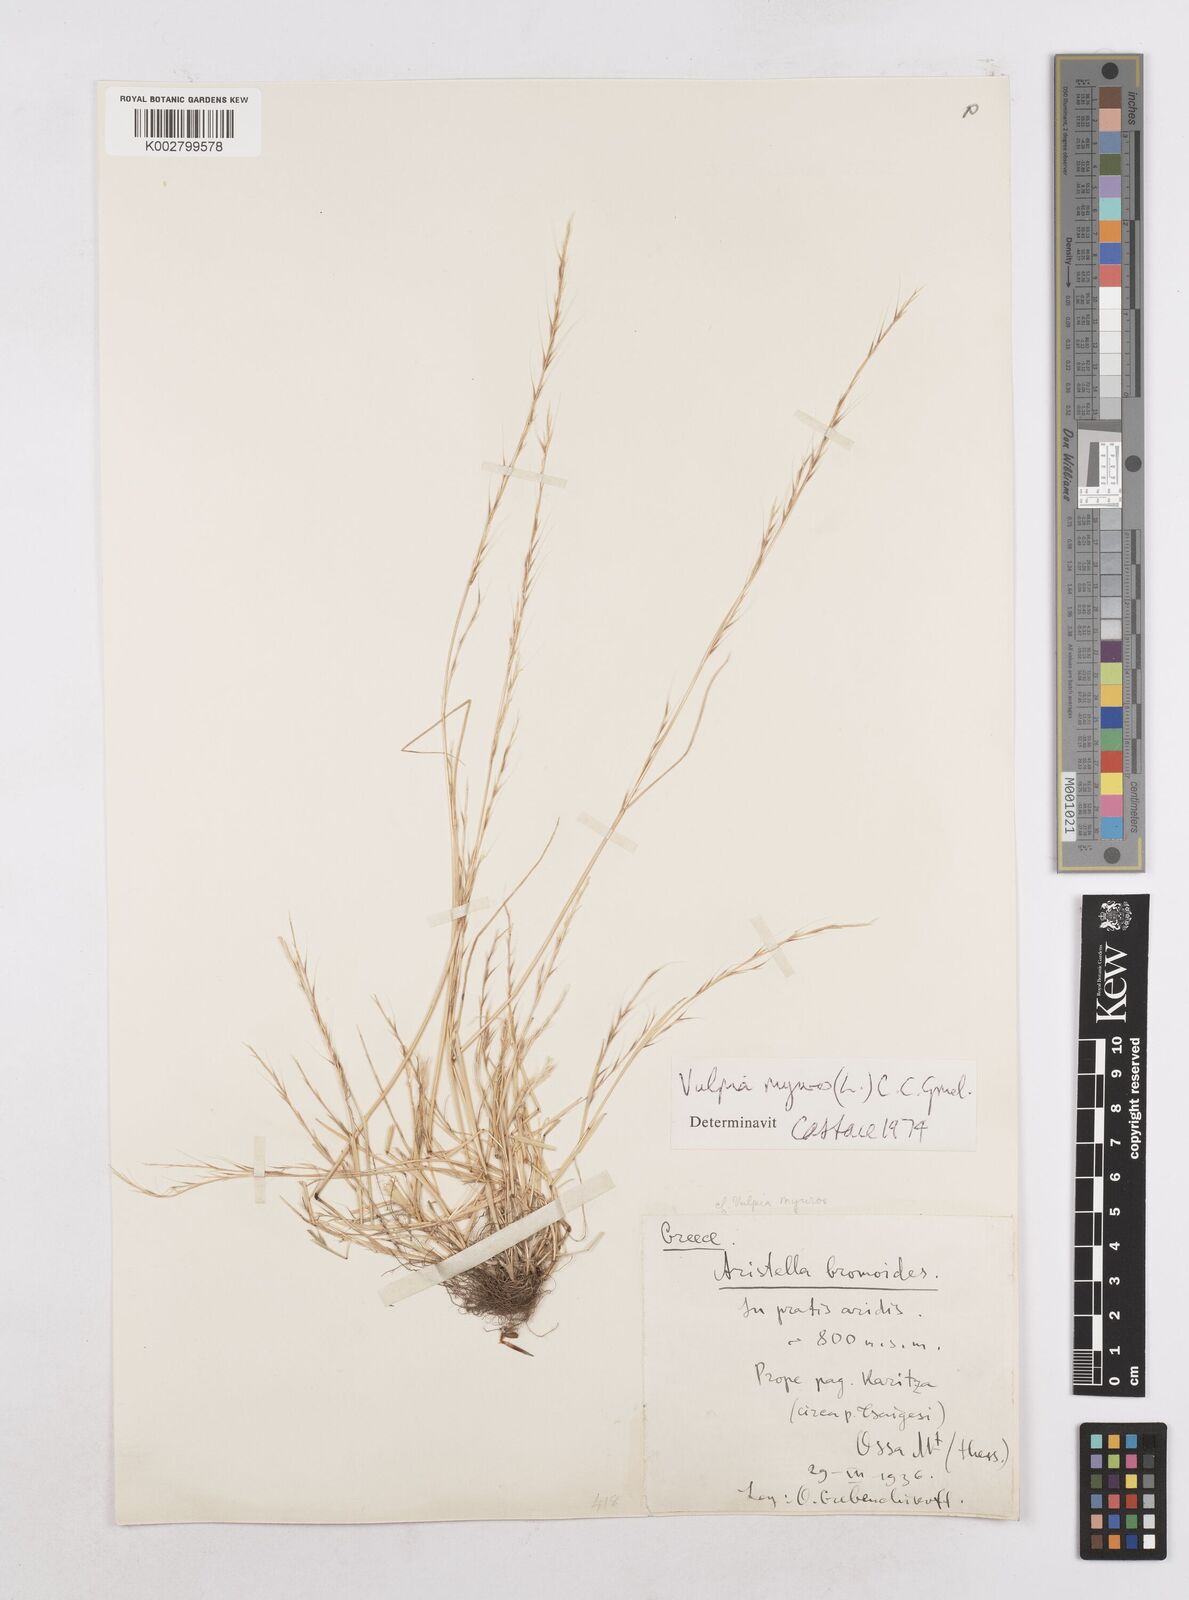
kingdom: Plantae
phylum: Tracheophyta
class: Liliopsida
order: Poales
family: Poaceae
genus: Festuca
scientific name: Festuca myuros
